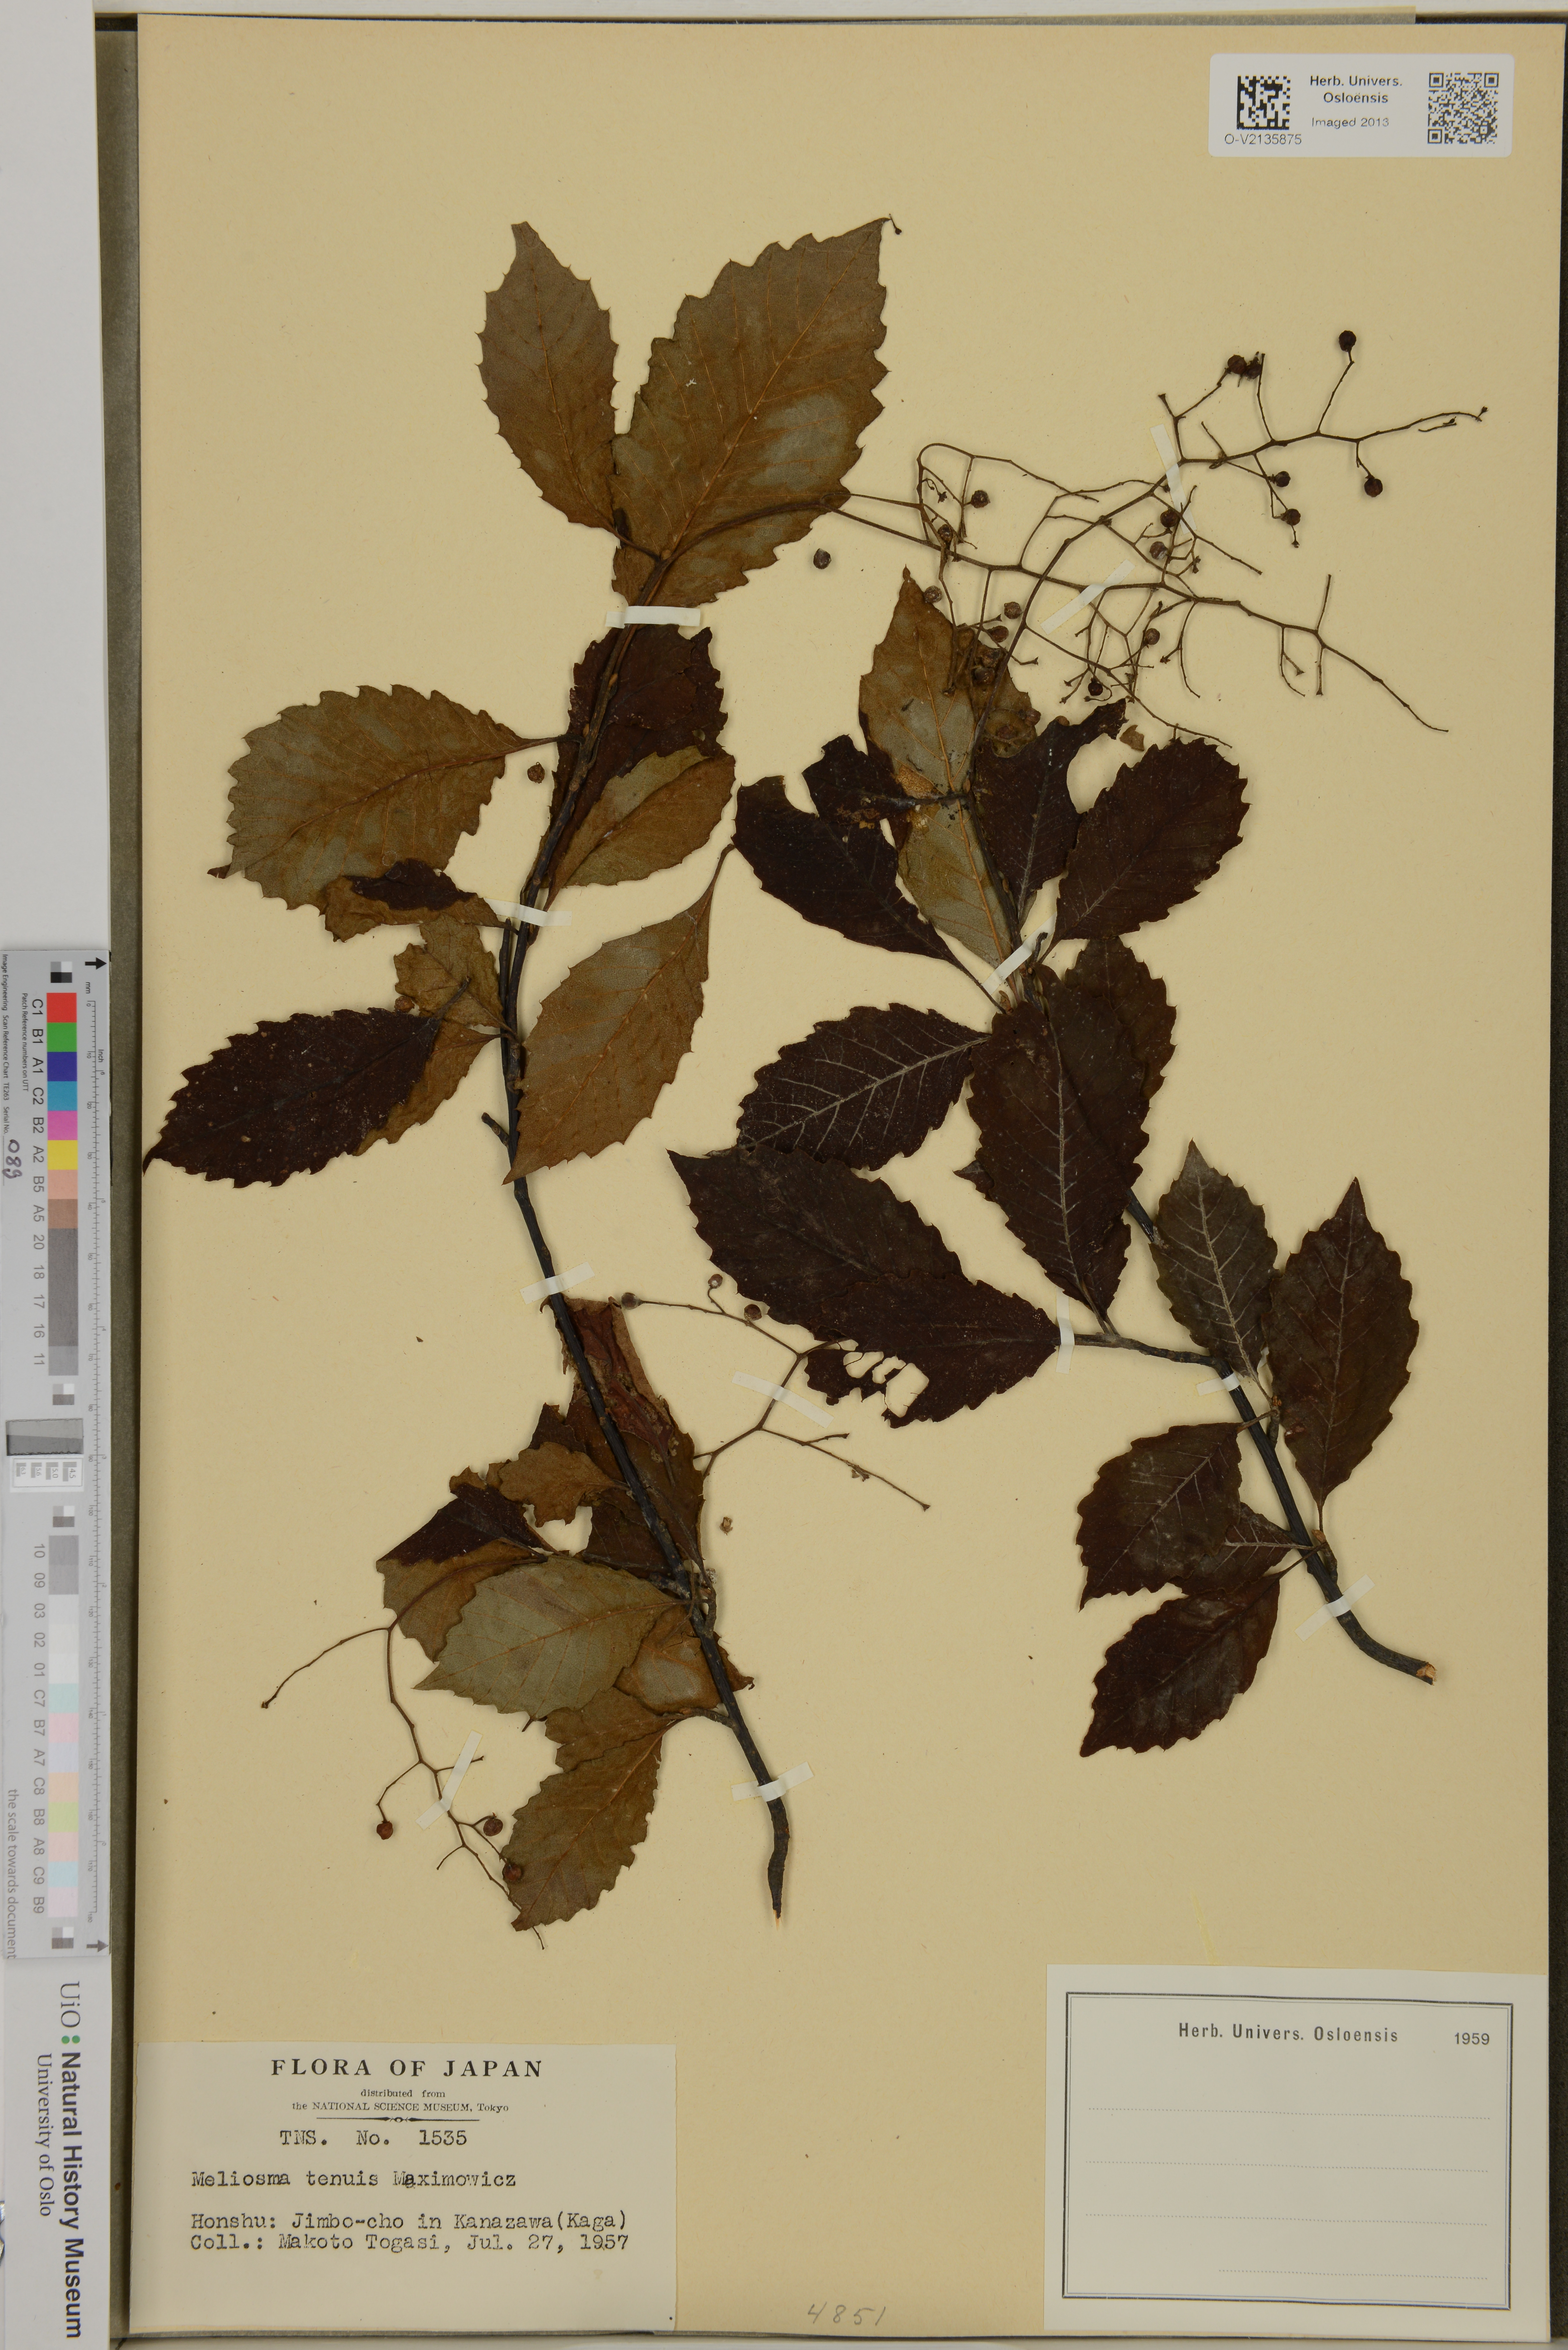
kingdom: Plantae
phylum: Tracheophyta
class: Magnoliopsida
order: Proteales
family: Sabiaceae
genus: Meliosma
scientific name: Meliosma tenuis
